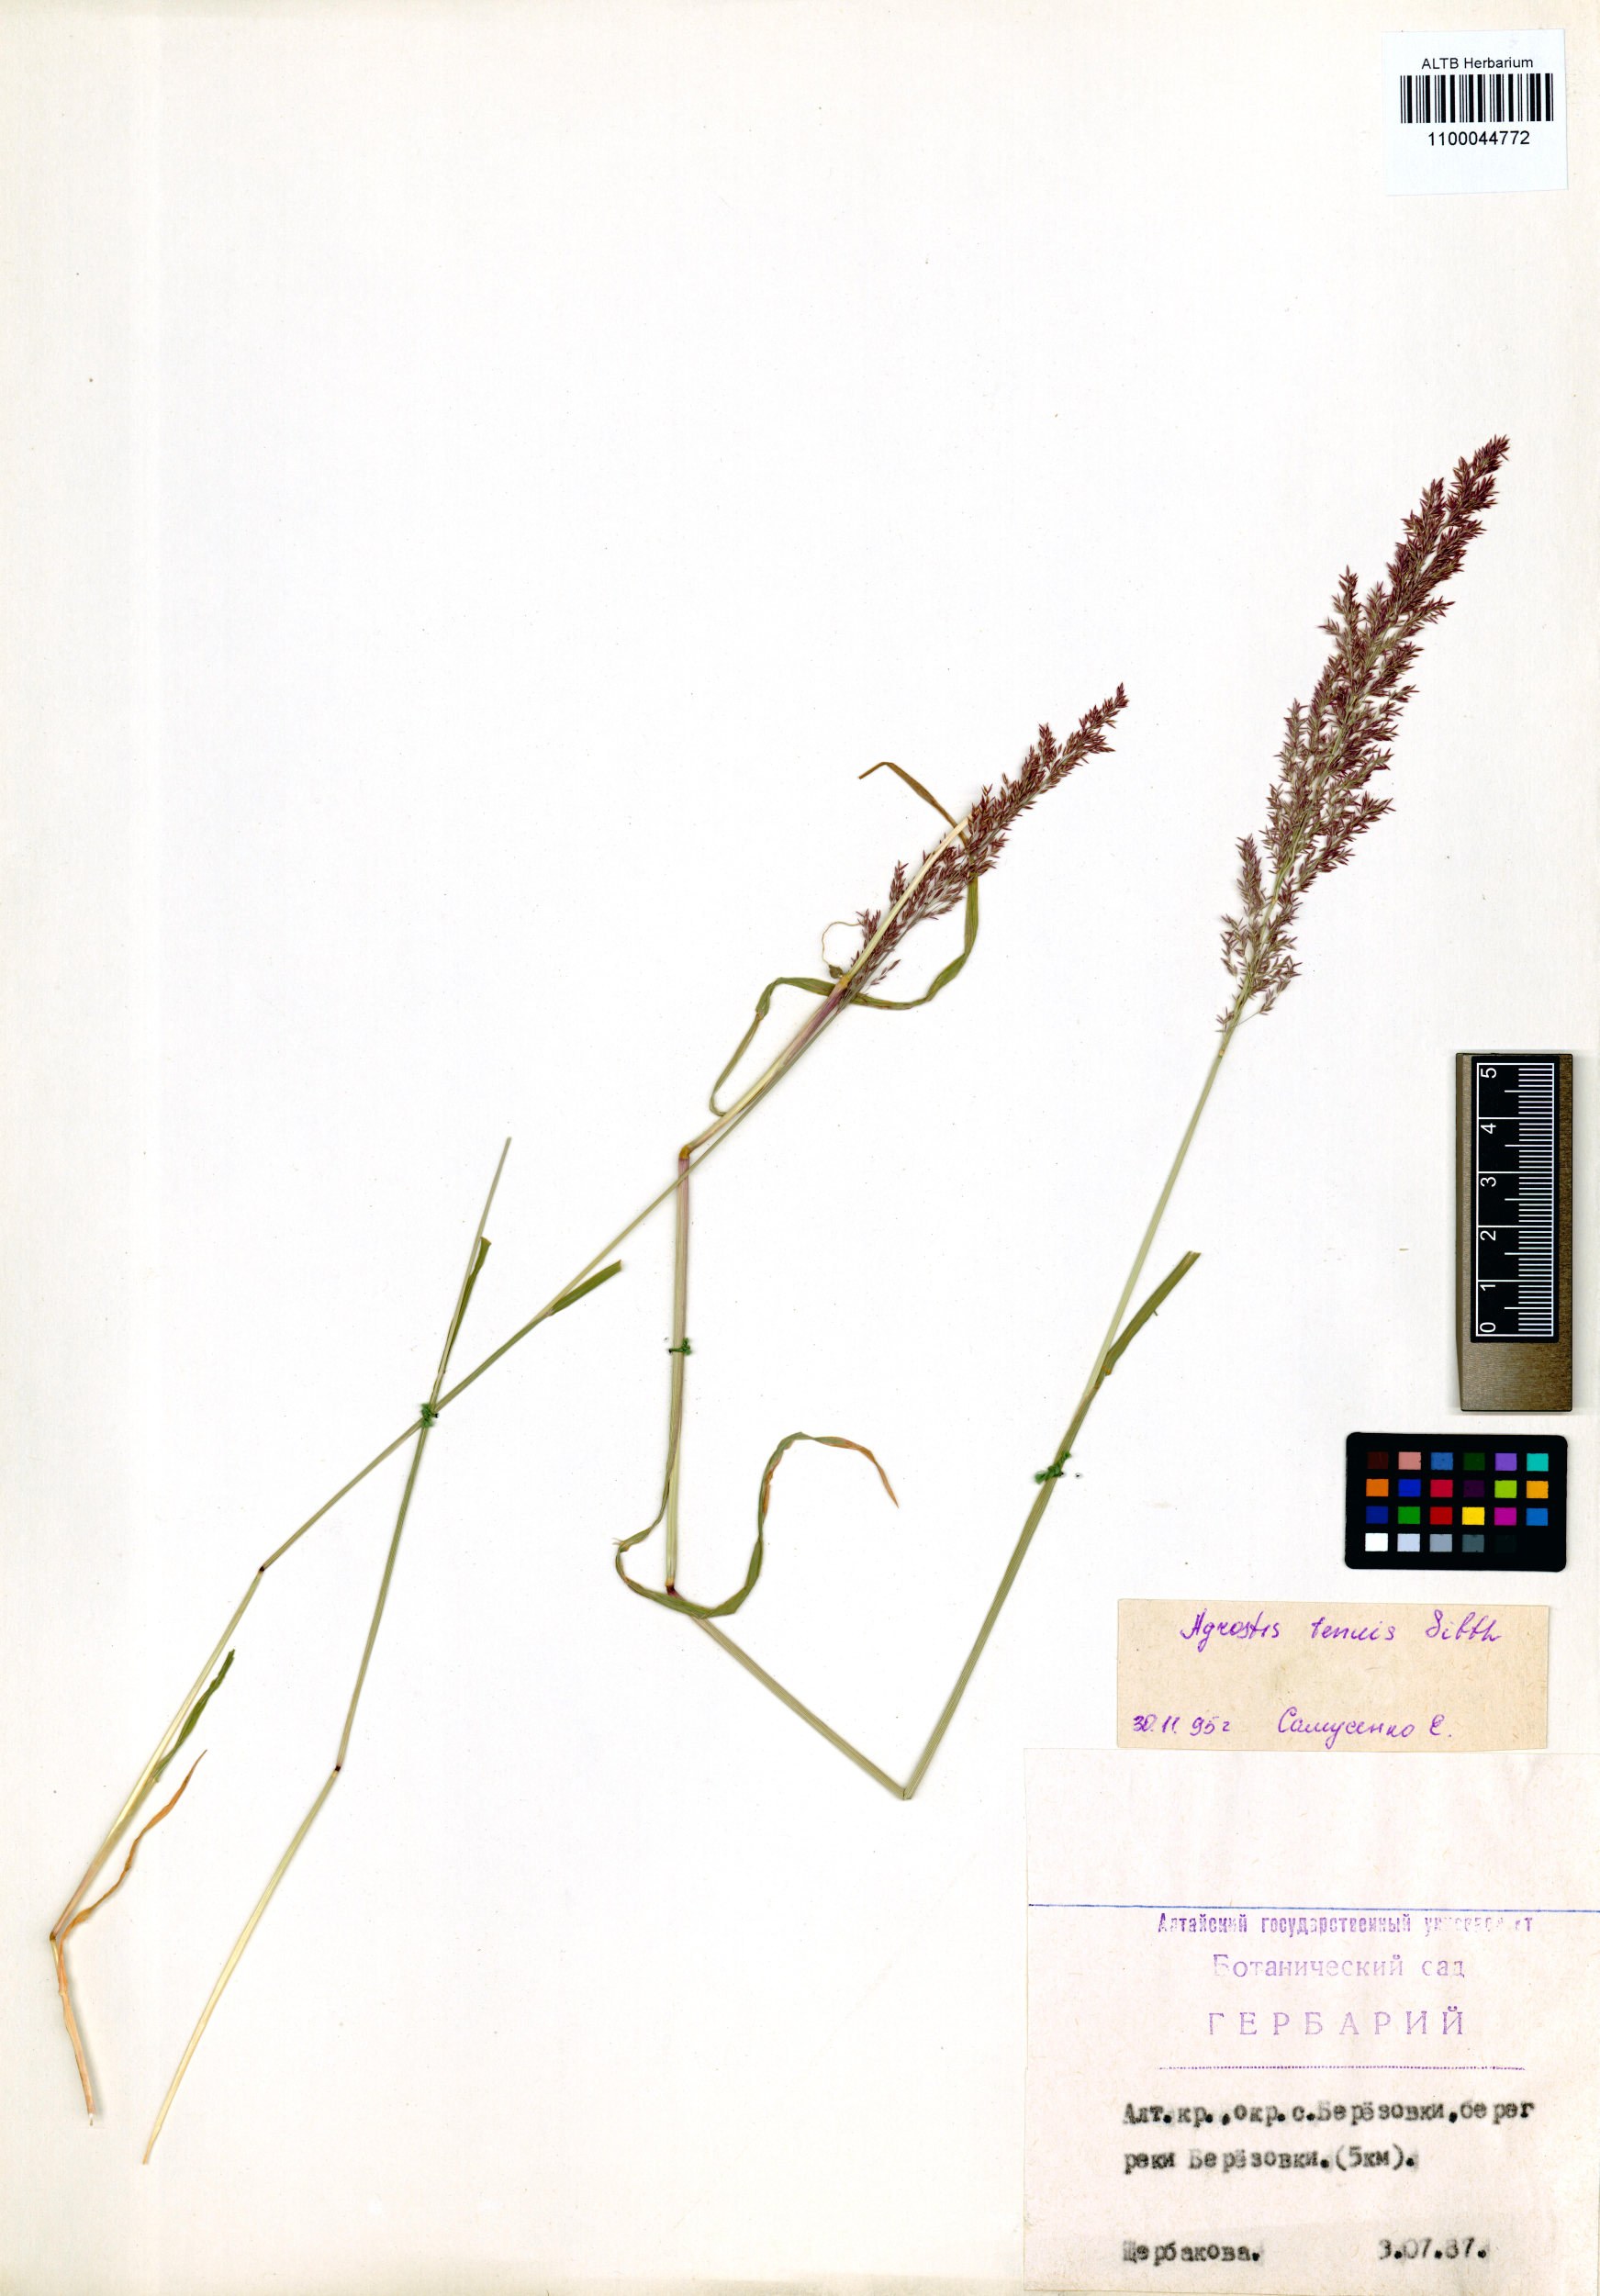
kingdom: Plantae
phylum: Tracheophyta
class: Liliopsida
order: Poales
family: Poaceae
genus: Agrostis
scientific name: Agrostis gigantea
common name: Black bent
